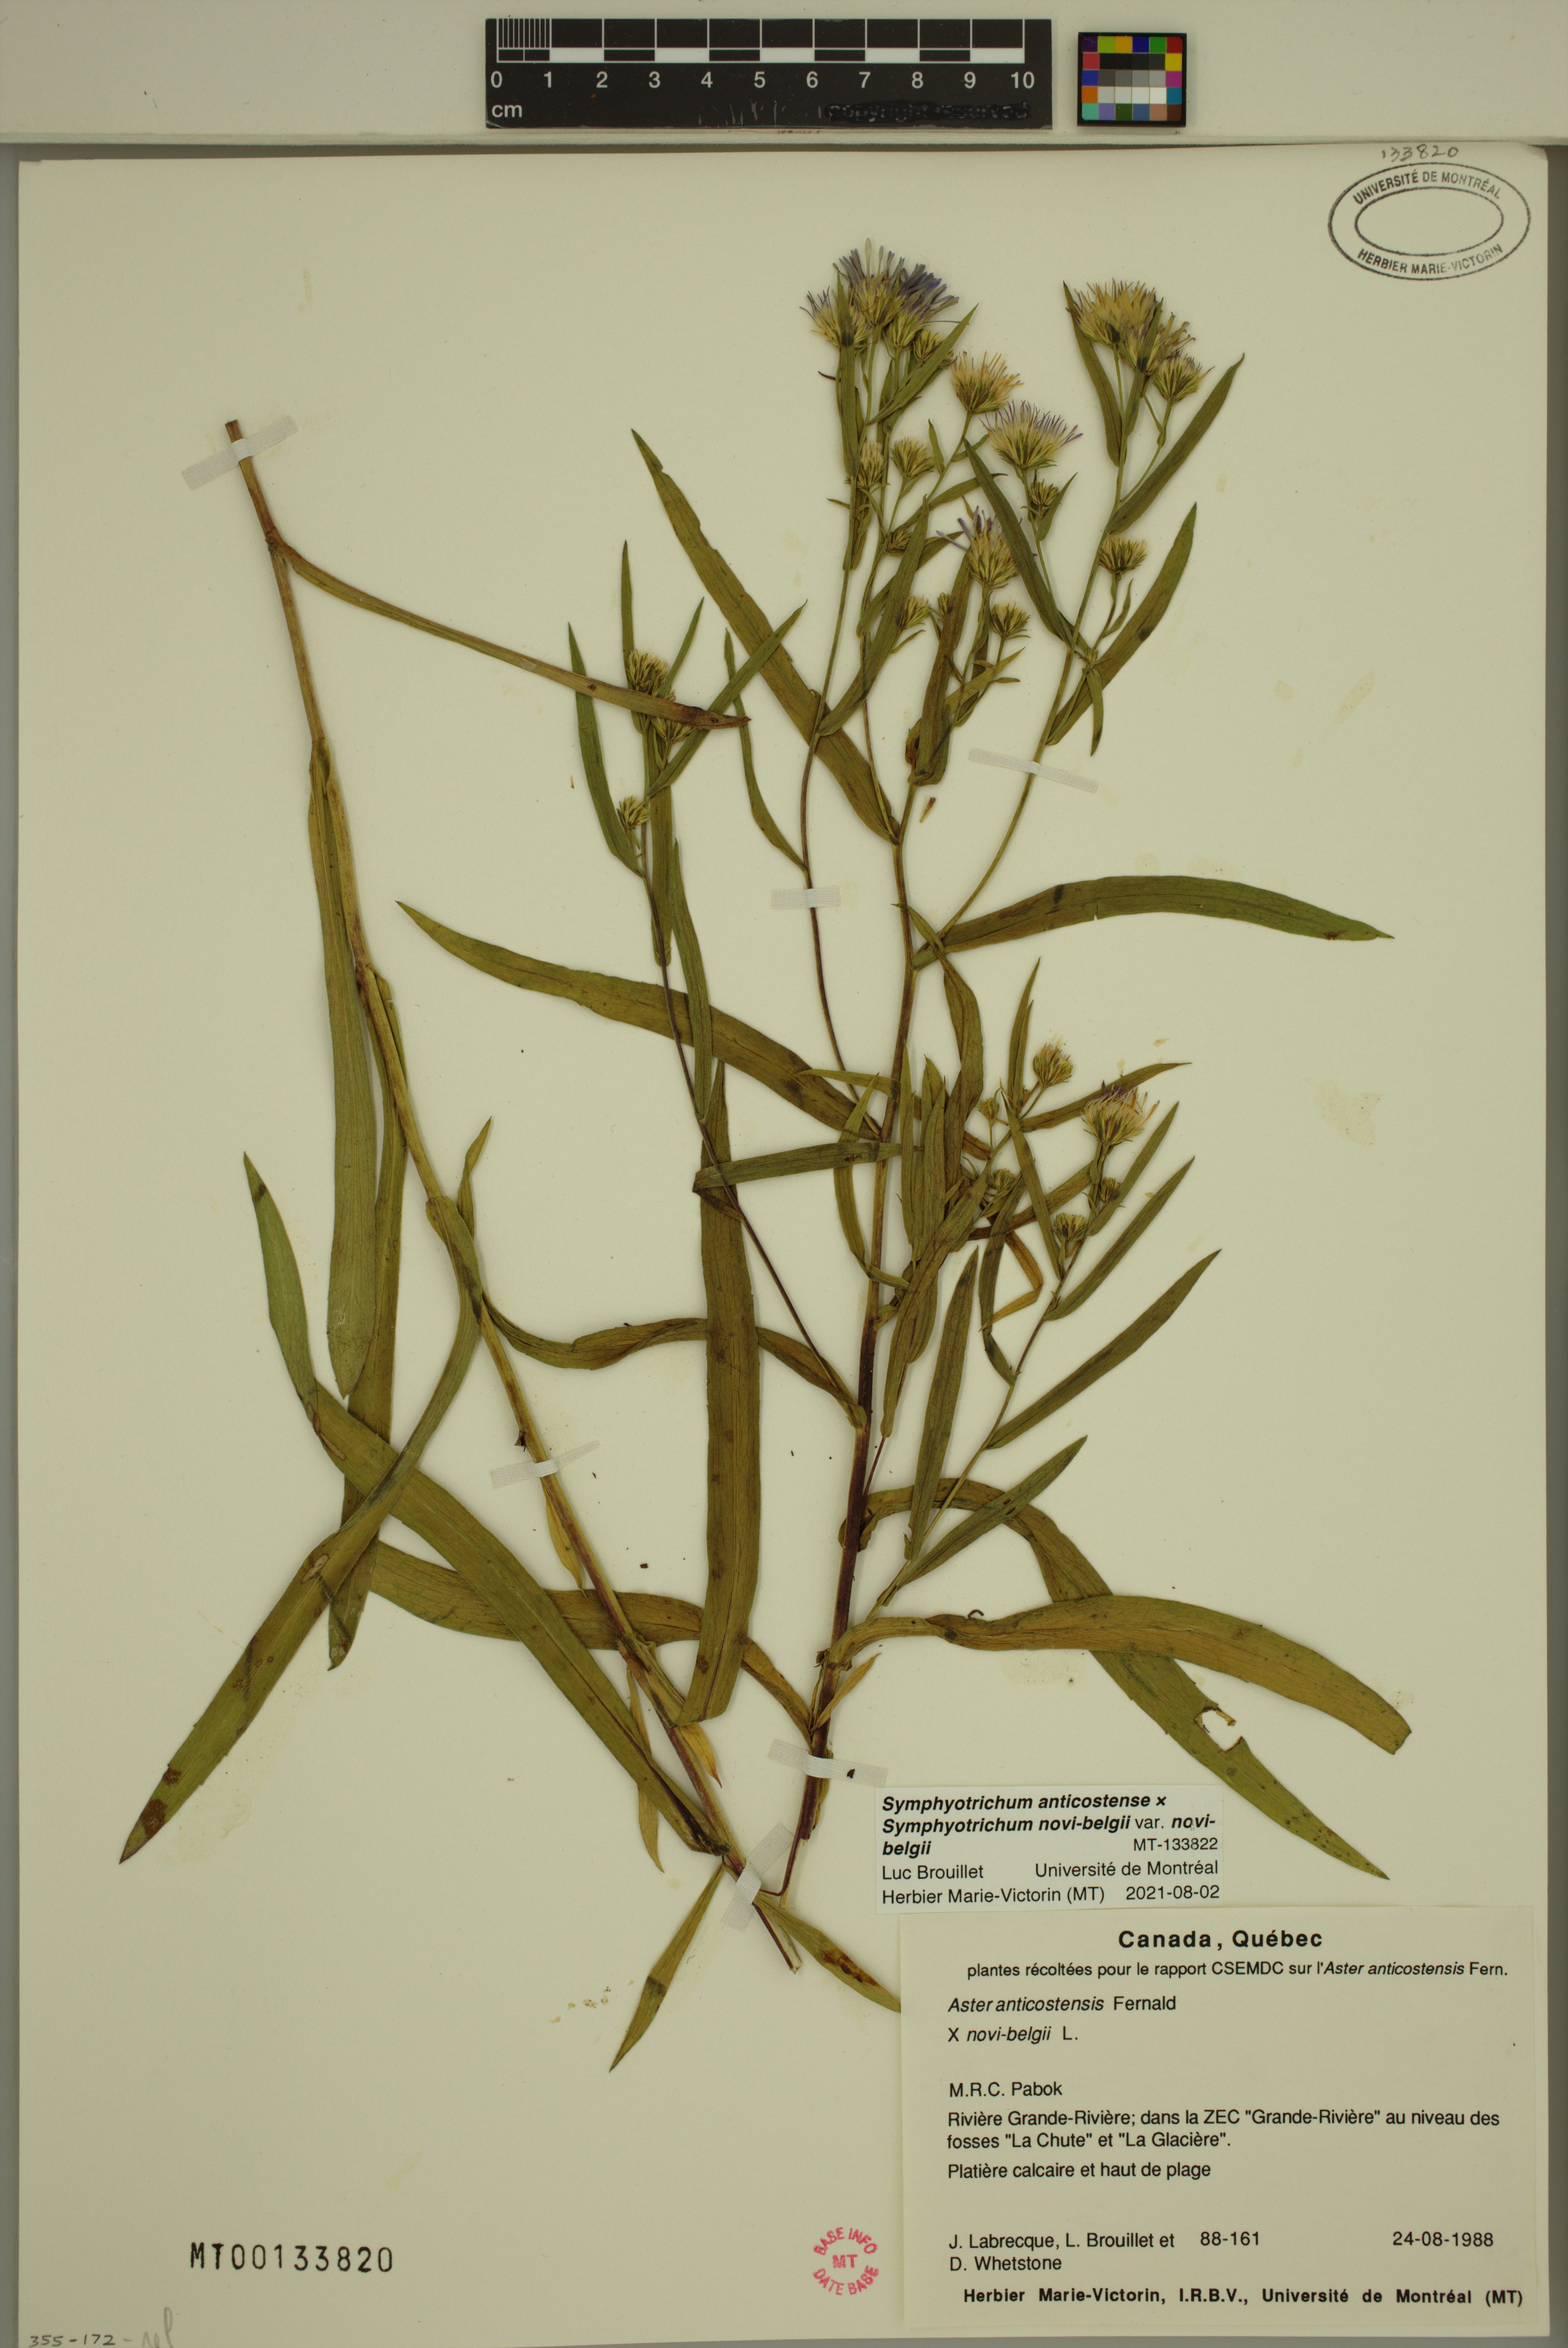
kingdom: Plantae
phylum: Tracheophyta
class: Magnoliopsida
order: Asterales
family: Asteraceae
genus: Symphyotrichum
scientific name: Symphyotrichum anticostense
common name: Anticosti island aster
